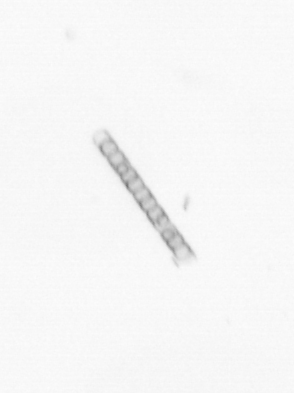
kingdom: Chromista
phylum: Ochrophyta
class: Bacillariophyceae
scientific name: Bacillariophyceae
